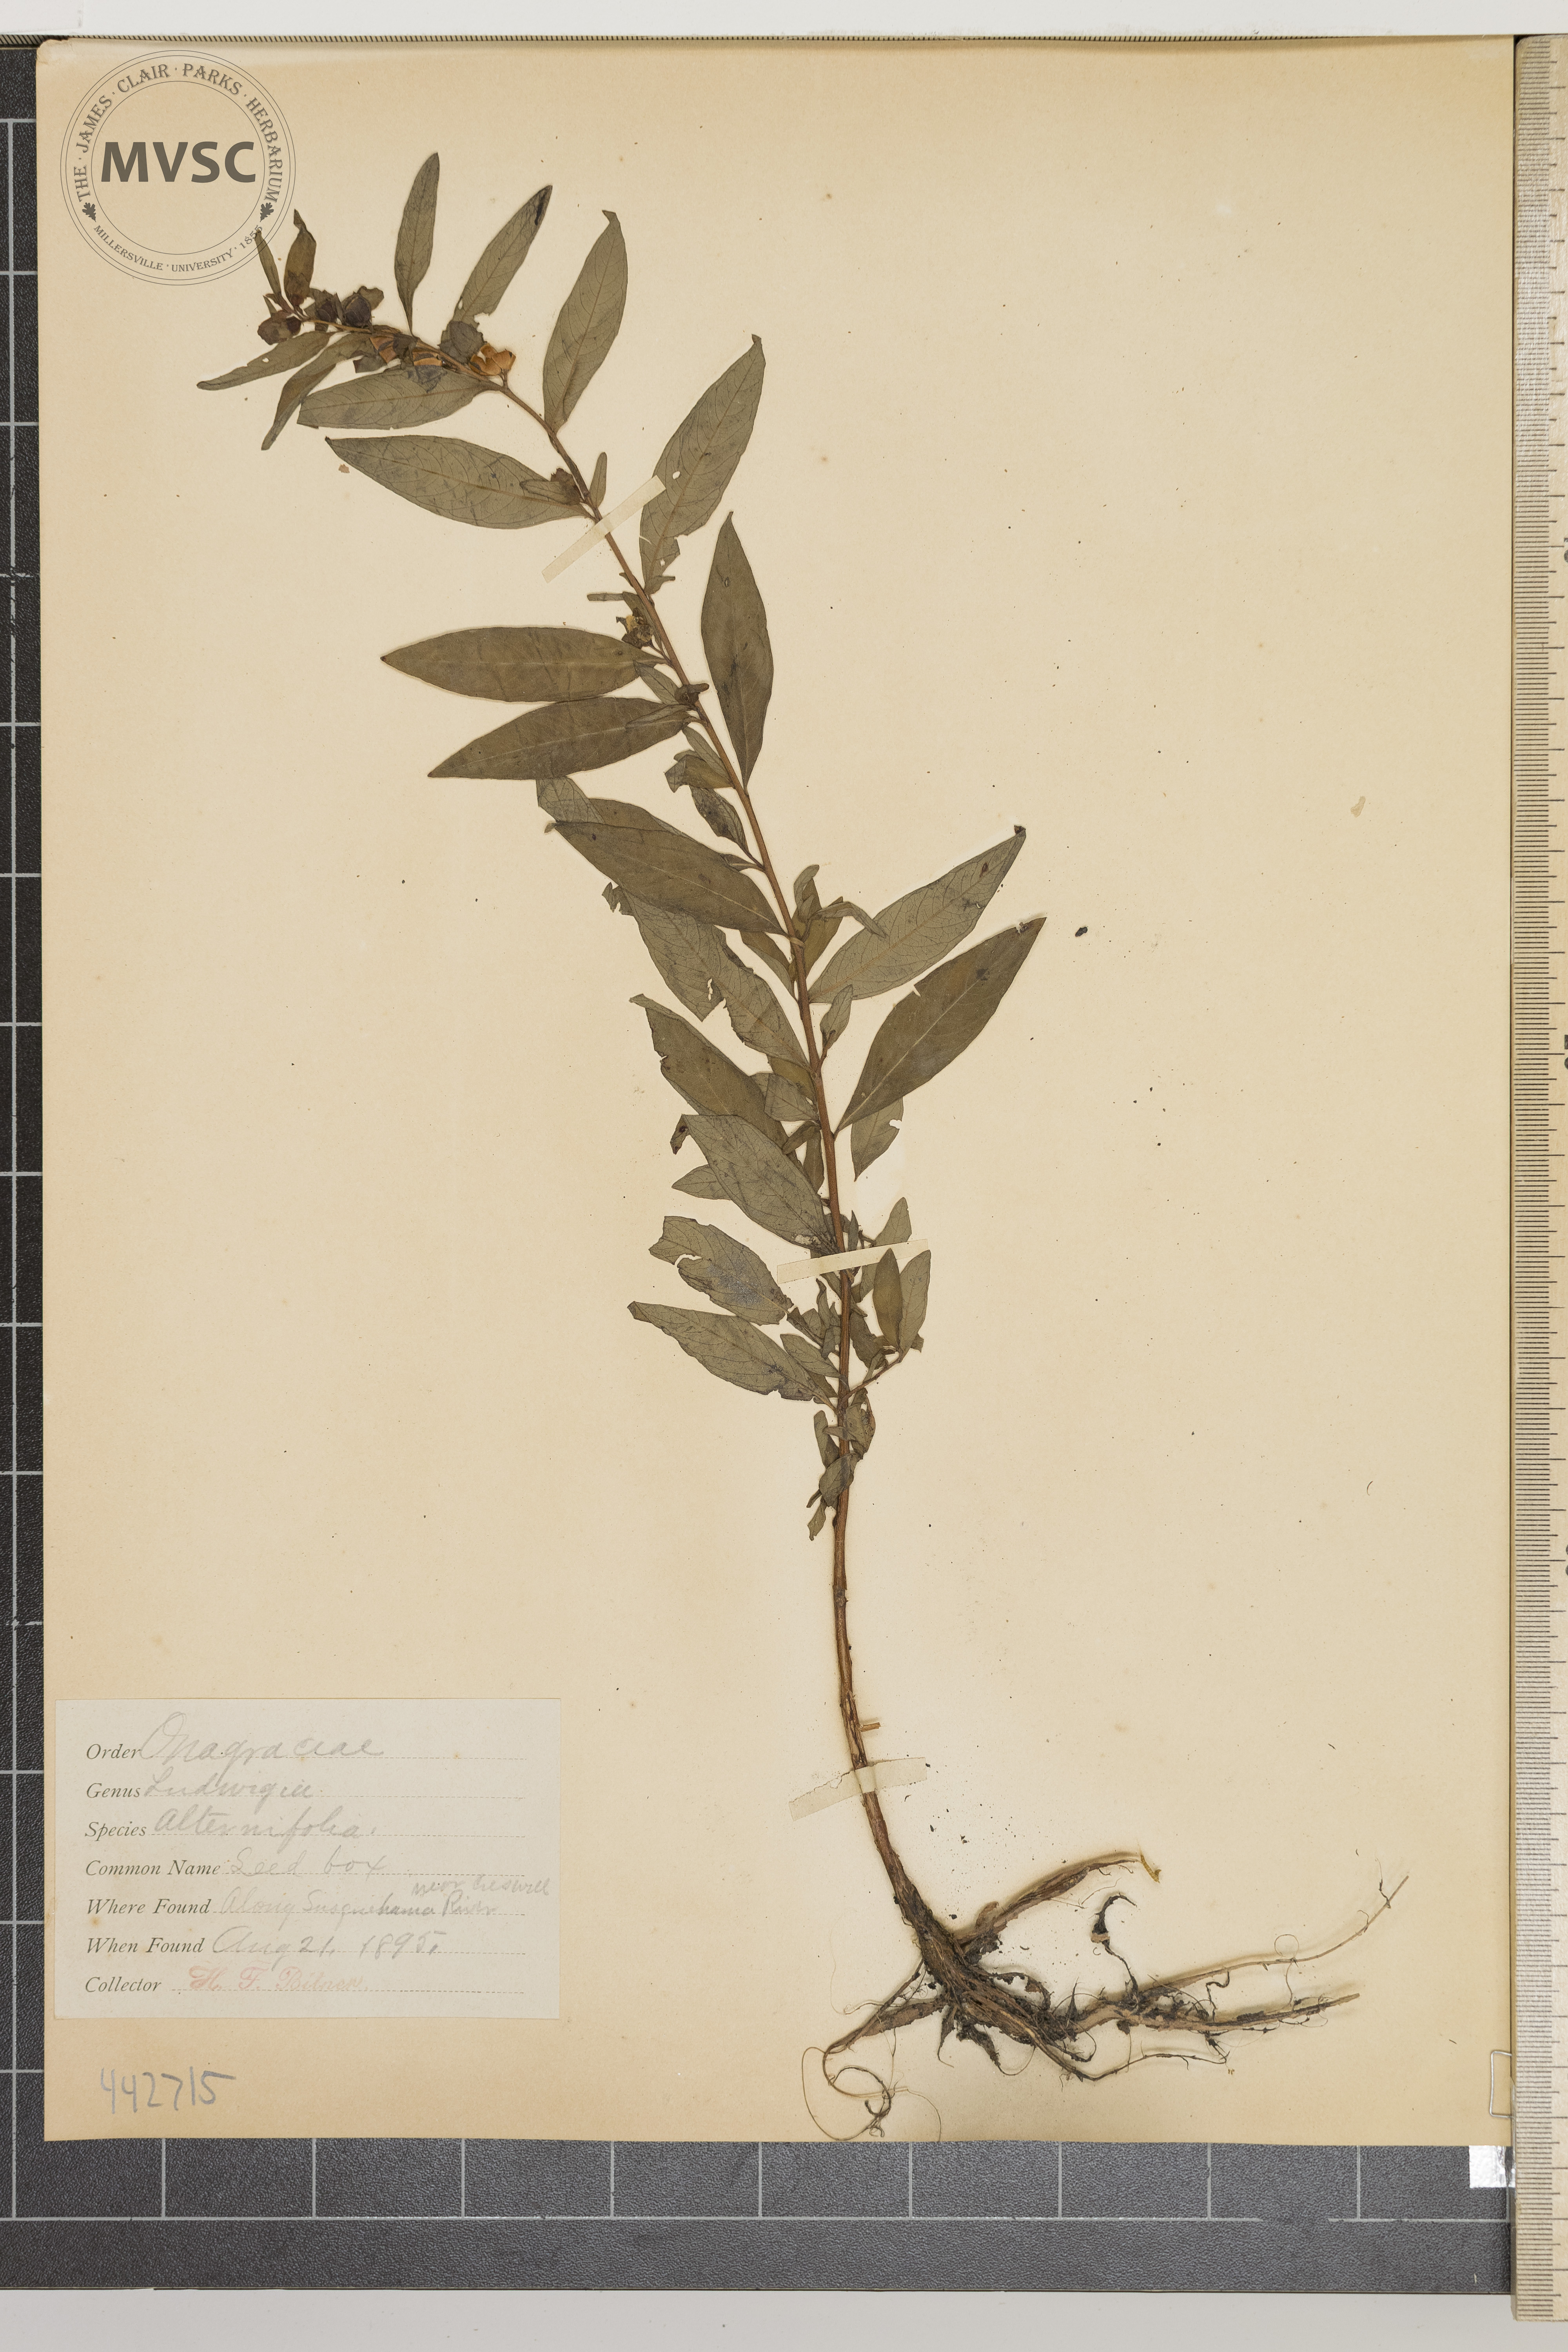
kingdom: Plantae
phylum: Tracheophyta
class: Magnoliopsida
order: Myrtales
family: Onagraceae
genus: Ludwigia
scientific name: Ludwigia alternifolia
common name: Seedbox
